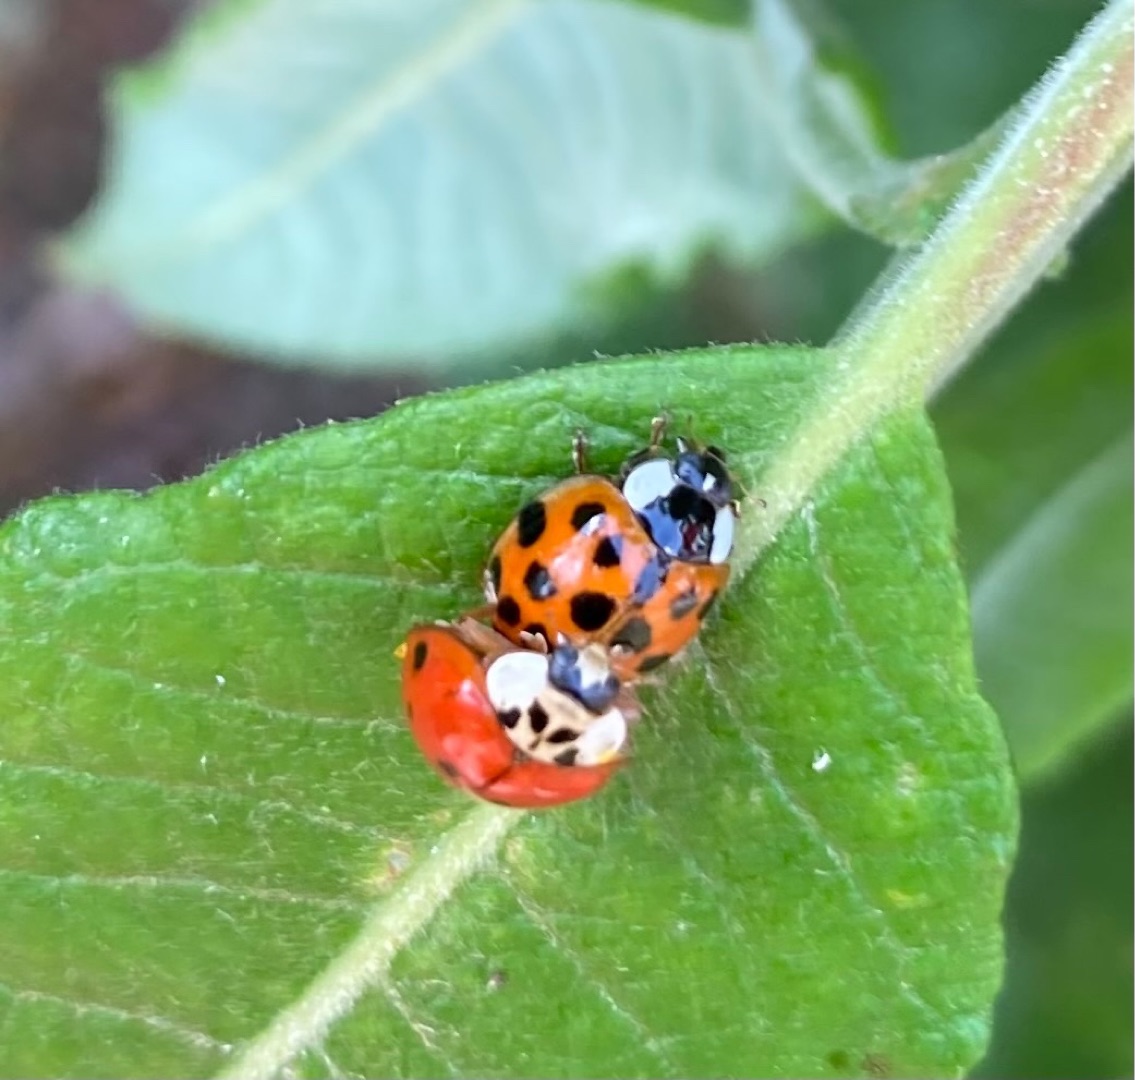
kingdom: Animalia
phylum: Arthropoda
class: Insecta
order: Coleoptera
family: Coccinellidae
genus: Harmonia
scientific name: Harmonia axyridis
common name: Harlekinmariehøne
